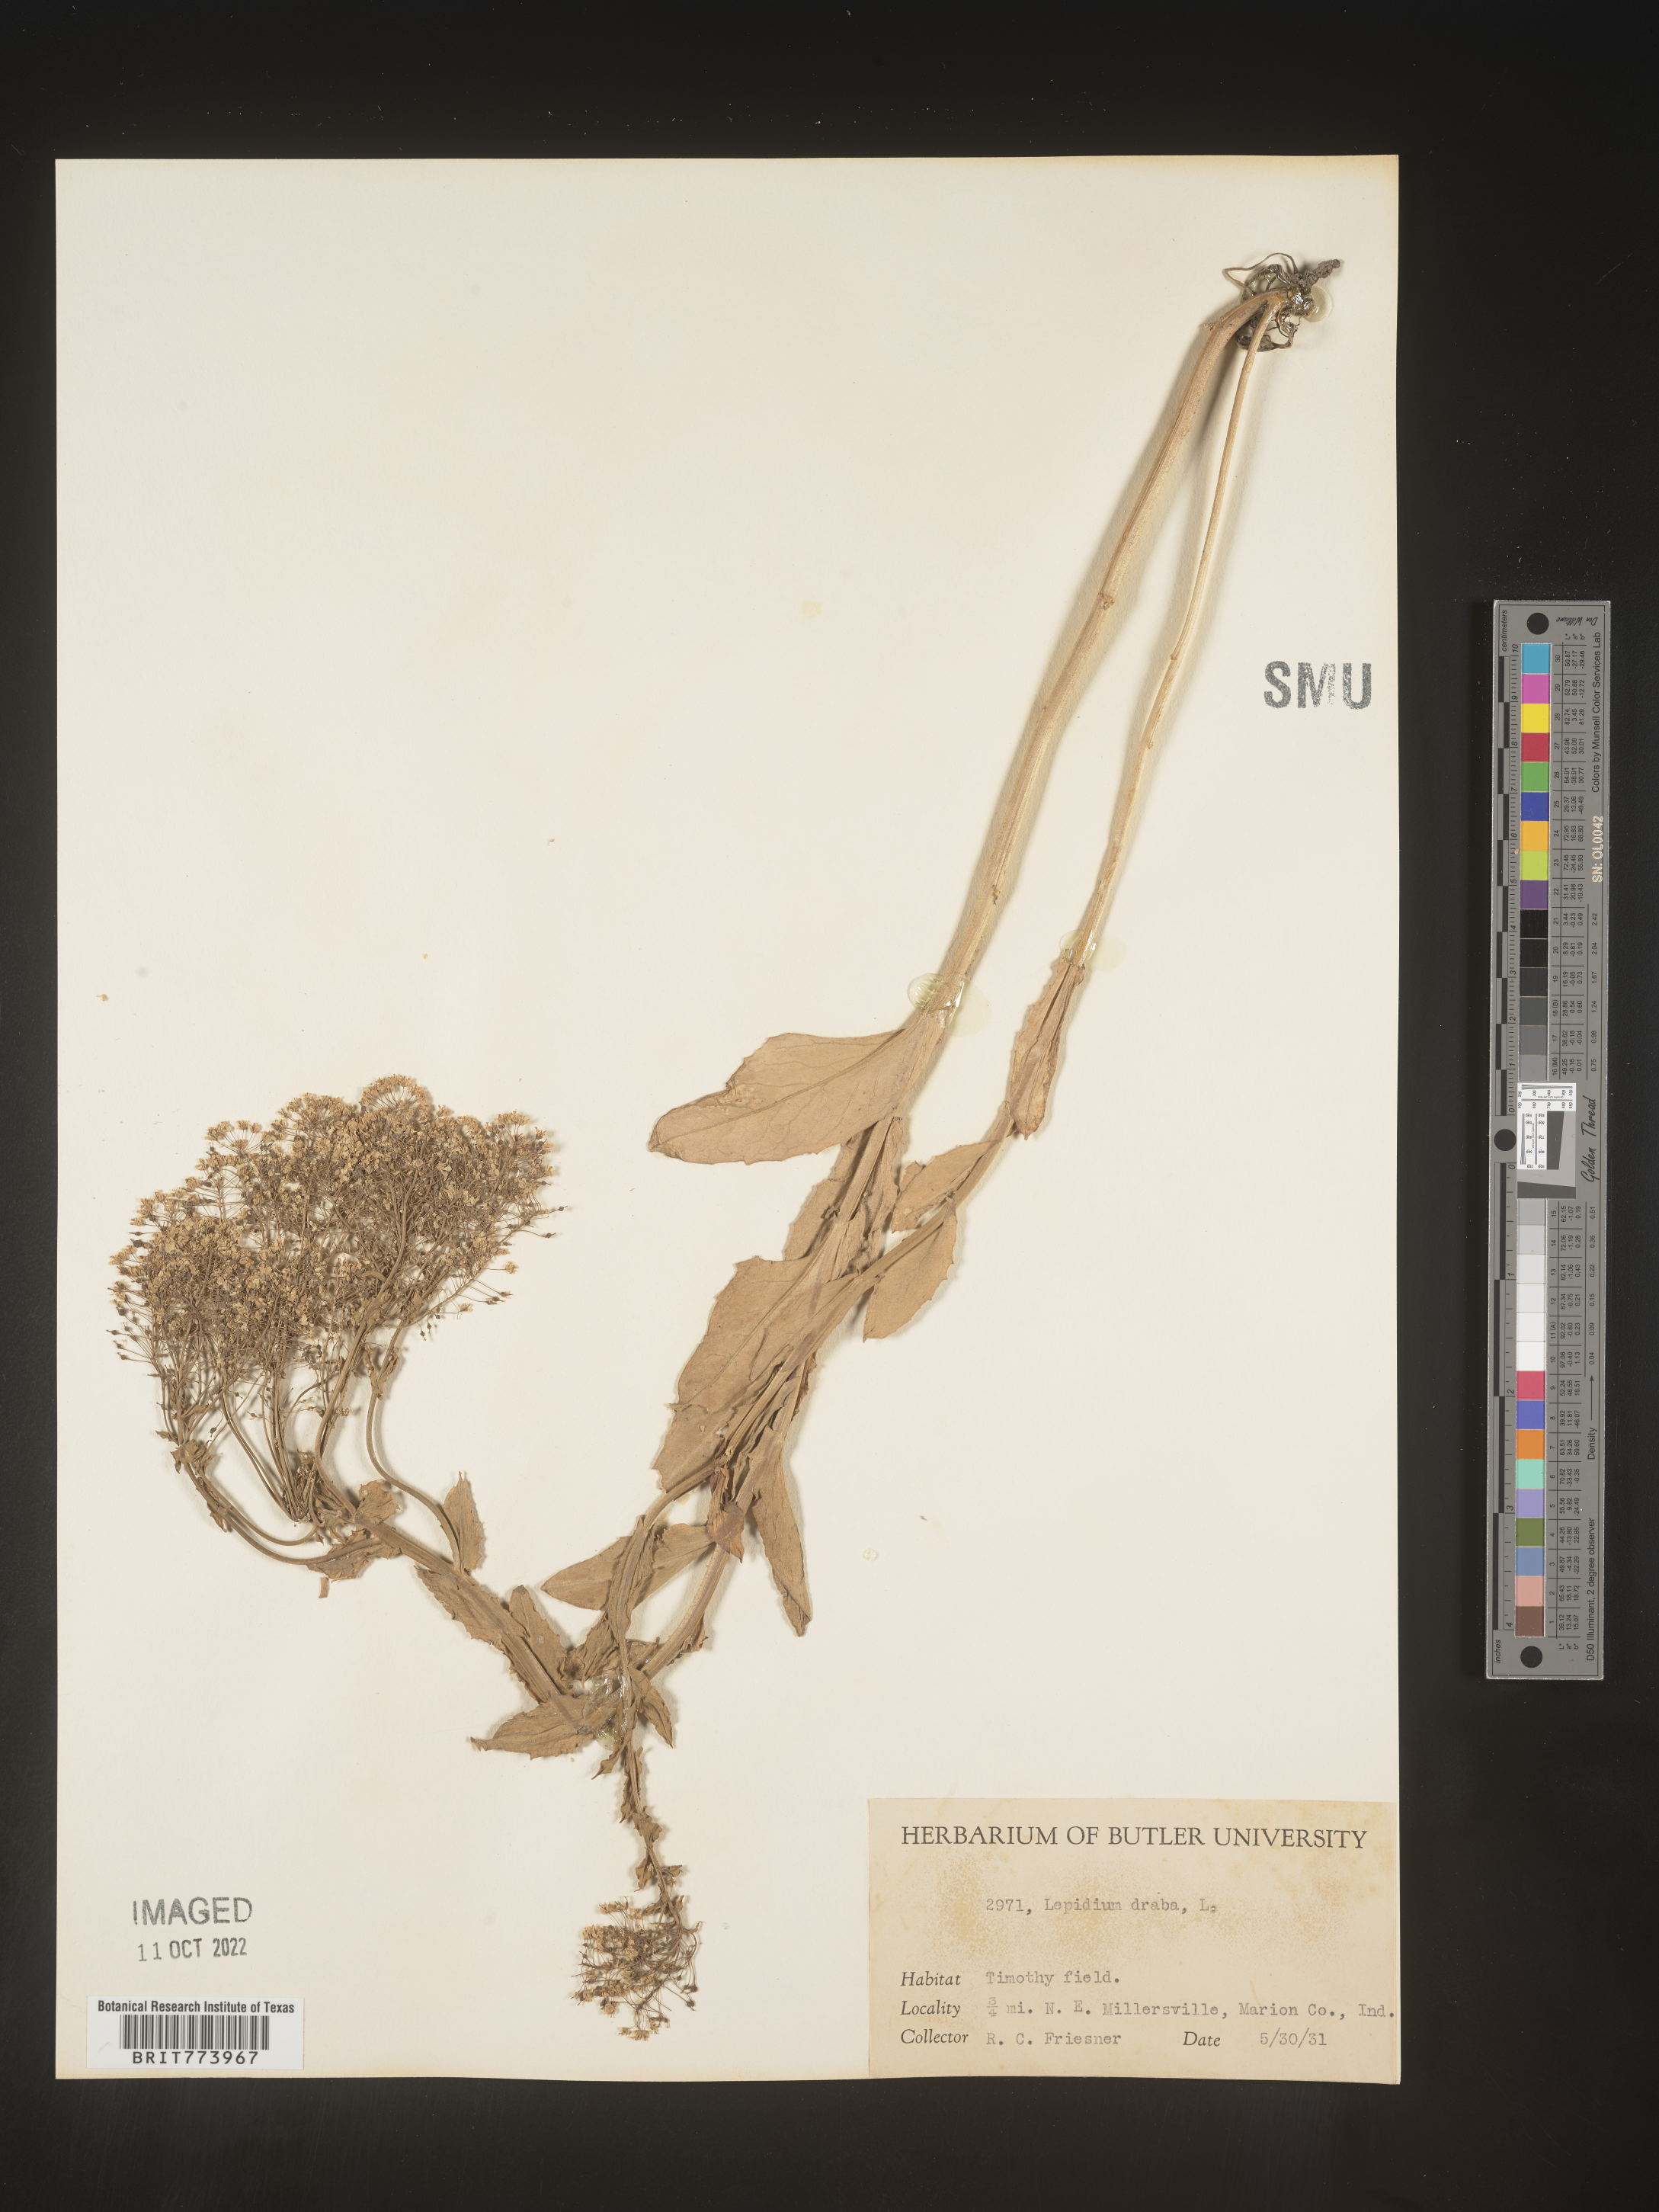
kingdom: Plantae
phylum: Tracheophyta
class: Magnoliopsida
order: Brassicales
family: Brassicaceae
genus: Lepidium
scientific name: Lepidium draba
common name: Hoary cress
